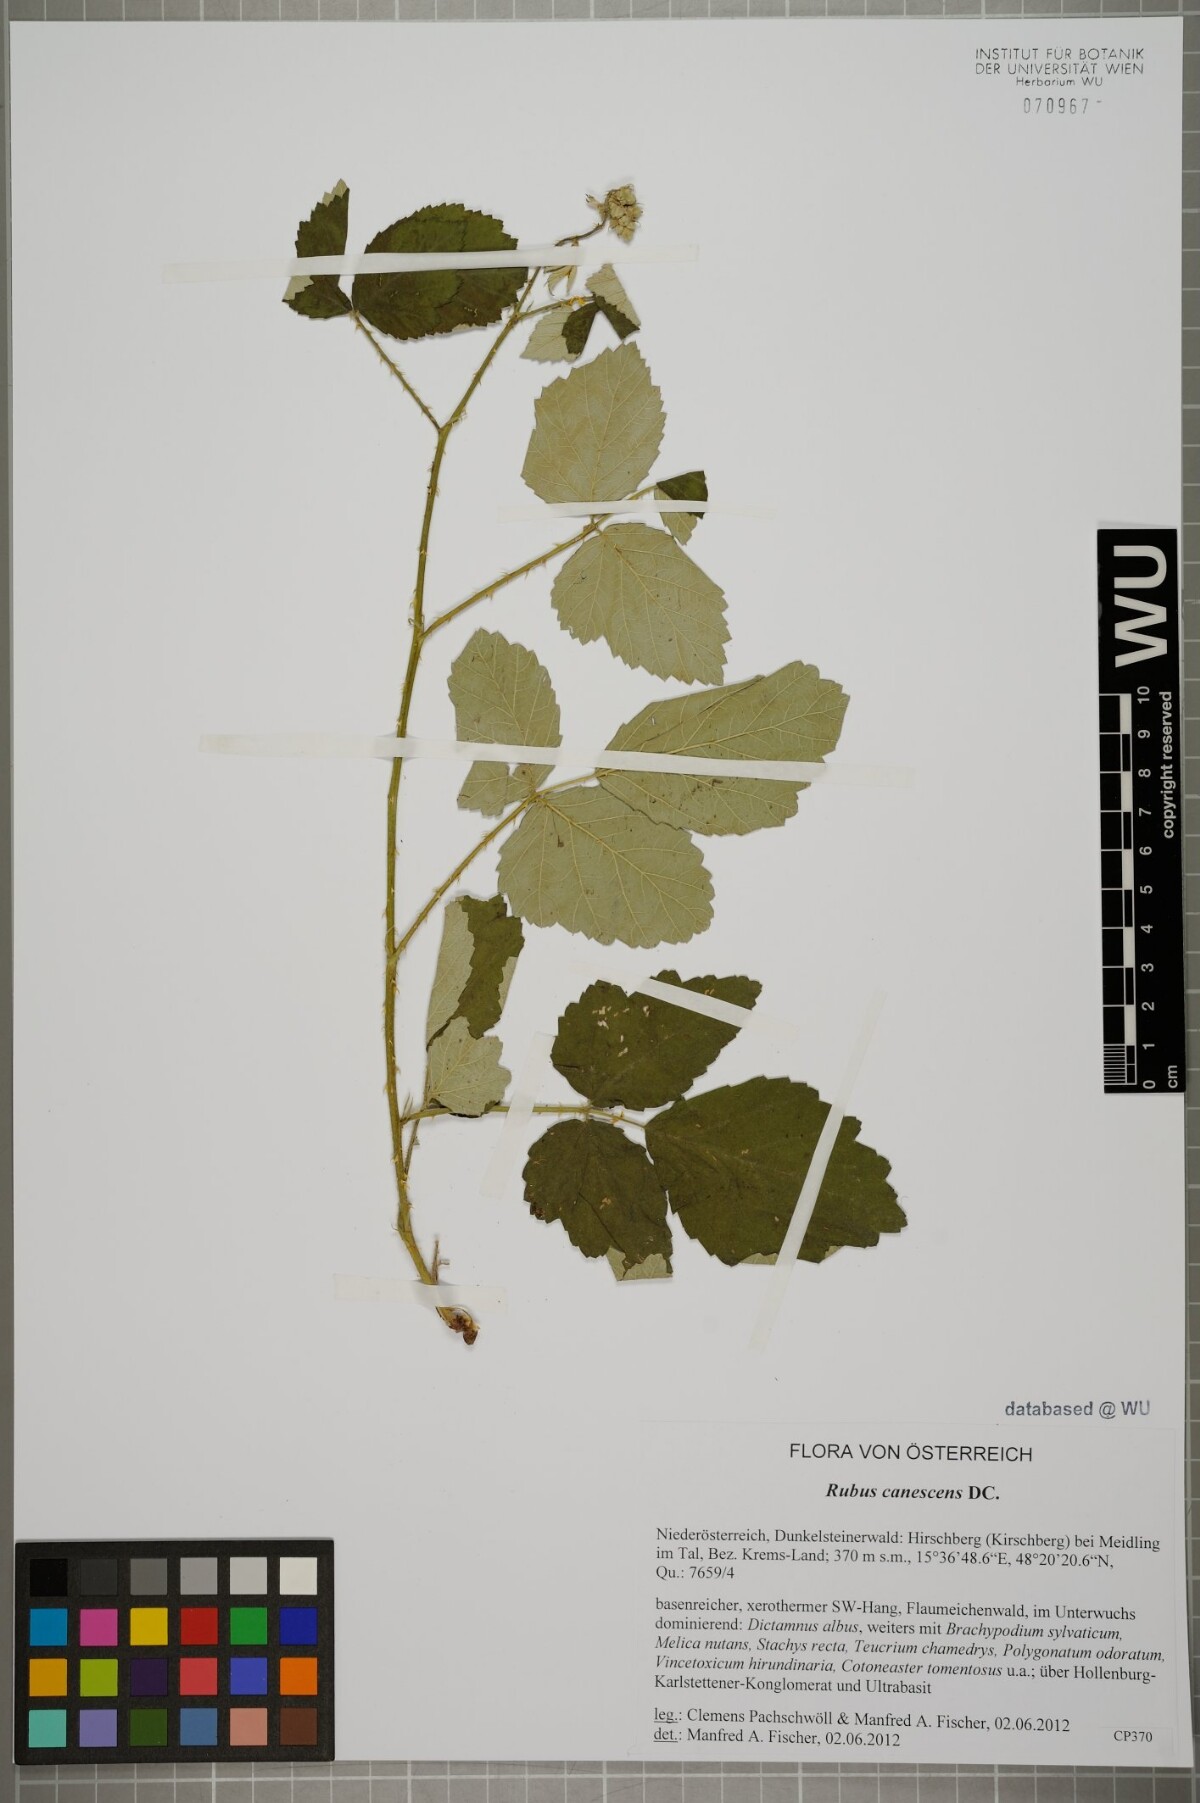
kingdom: Plantae
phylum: Tracheophyta
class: Magnoliopsida
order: Rosales
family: Rosaceae
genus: Rubus
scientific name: Rubus canescens
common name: Wooly blackberry
